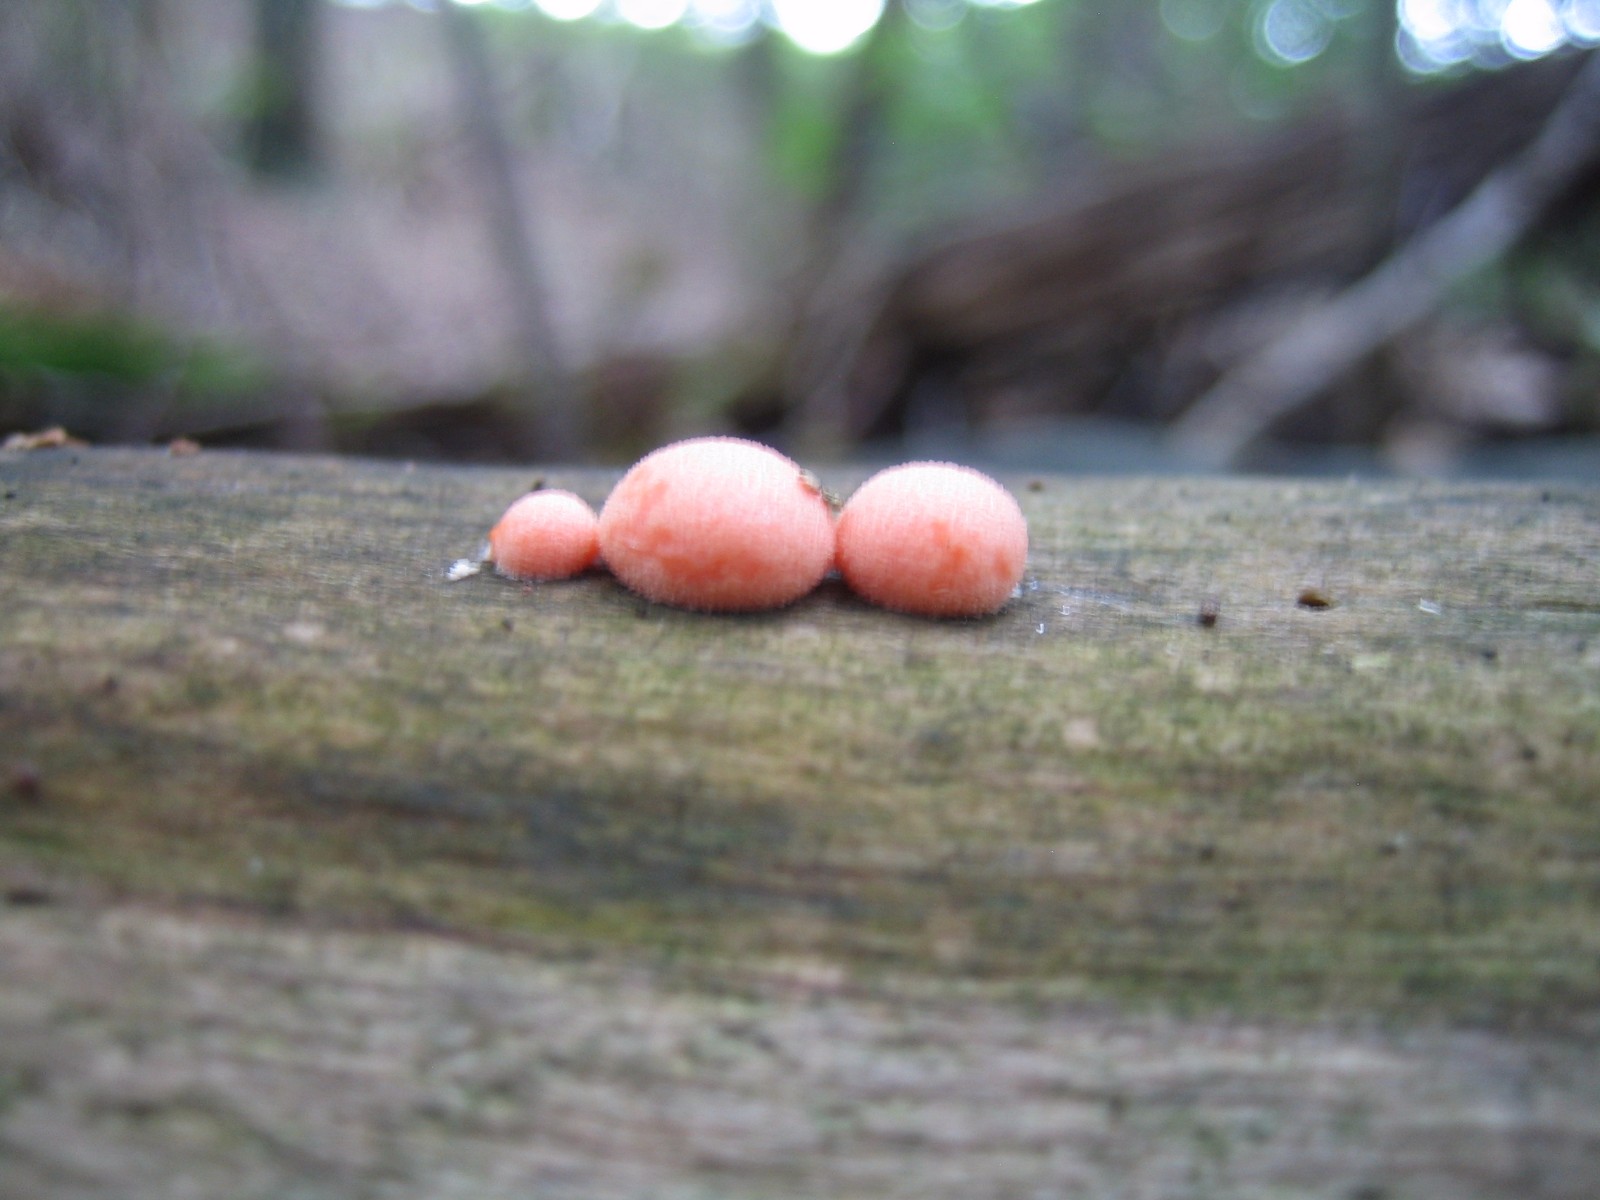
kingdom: Protozoa
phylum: Mycetozoa
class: Myxomycetes
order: Cribrariales
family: Tubiferaceae
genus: Lycogala
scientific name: Lycogala epidendrum
